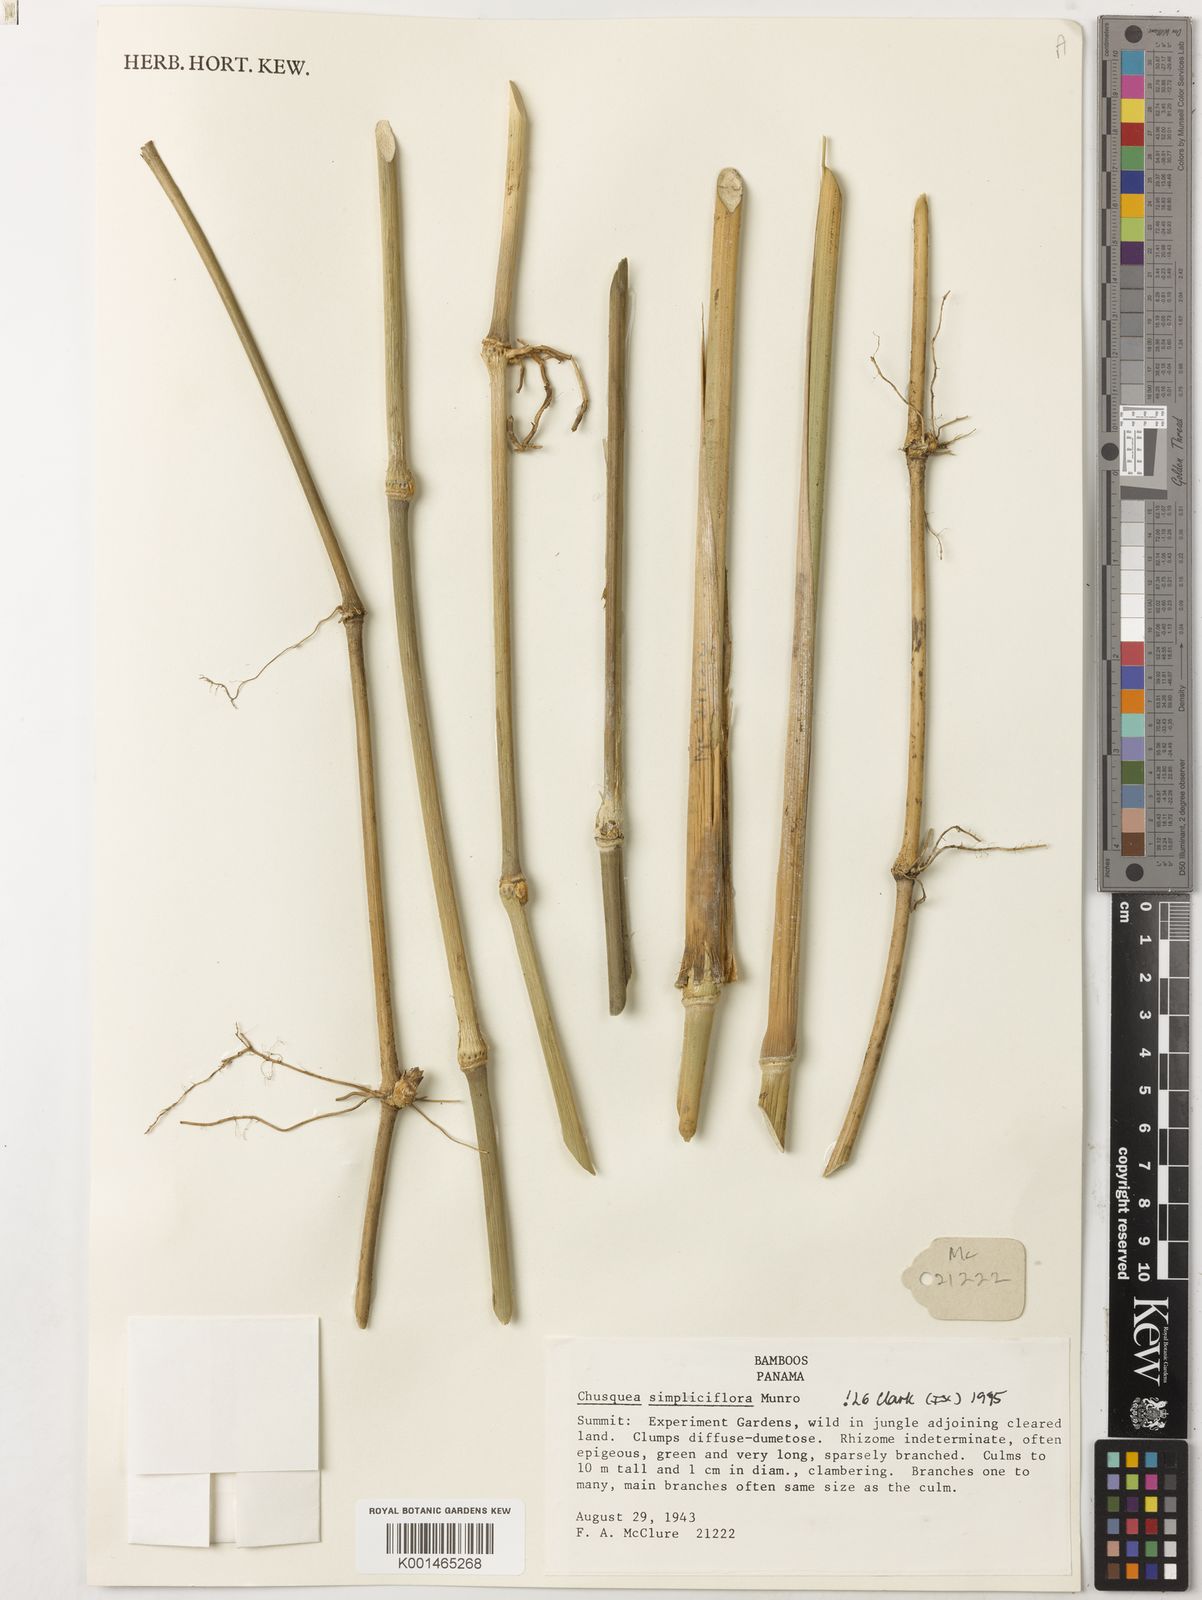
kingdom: Plantae
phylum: Tracheophyta
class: Liliopsida
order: Poales
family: Poaceae
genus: Chusquea
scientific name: Chusquea simpliciflora
